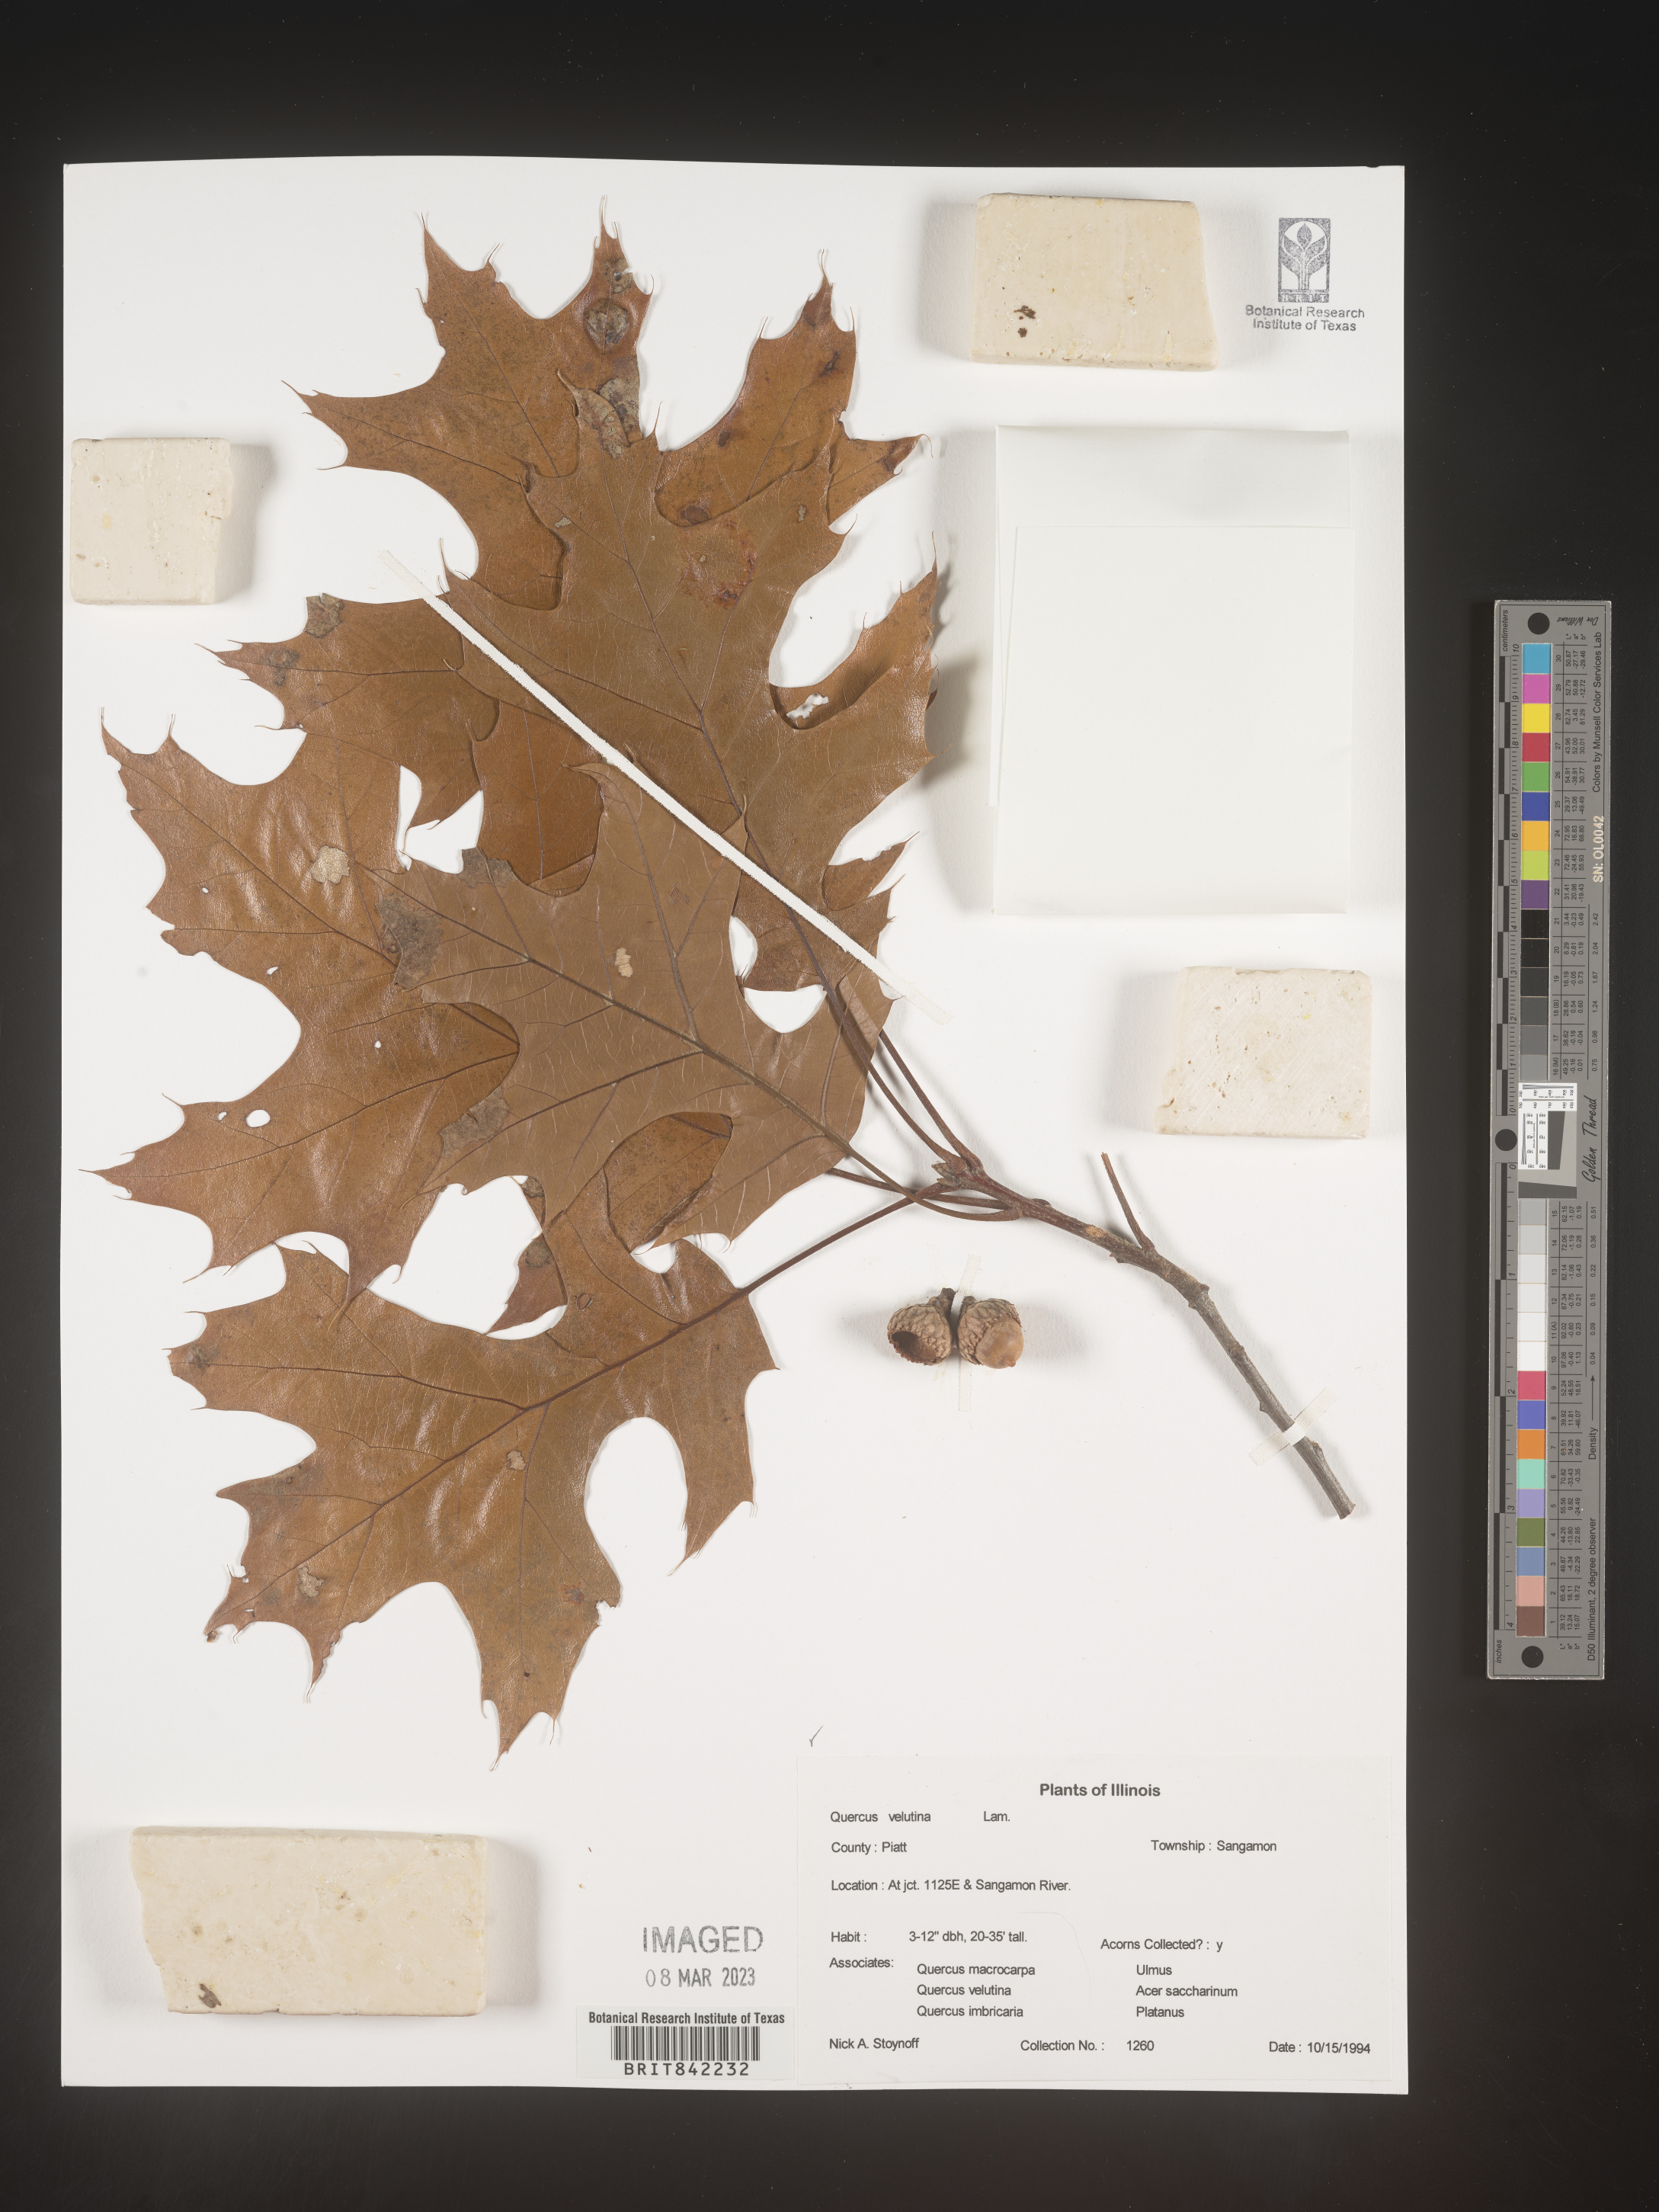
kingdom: Plantae
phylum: Tracheophyta
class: Magnoliopsida
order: Fagales
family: Fagaceae
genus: Quercus
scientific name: Quercus velutina
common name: Black oak
